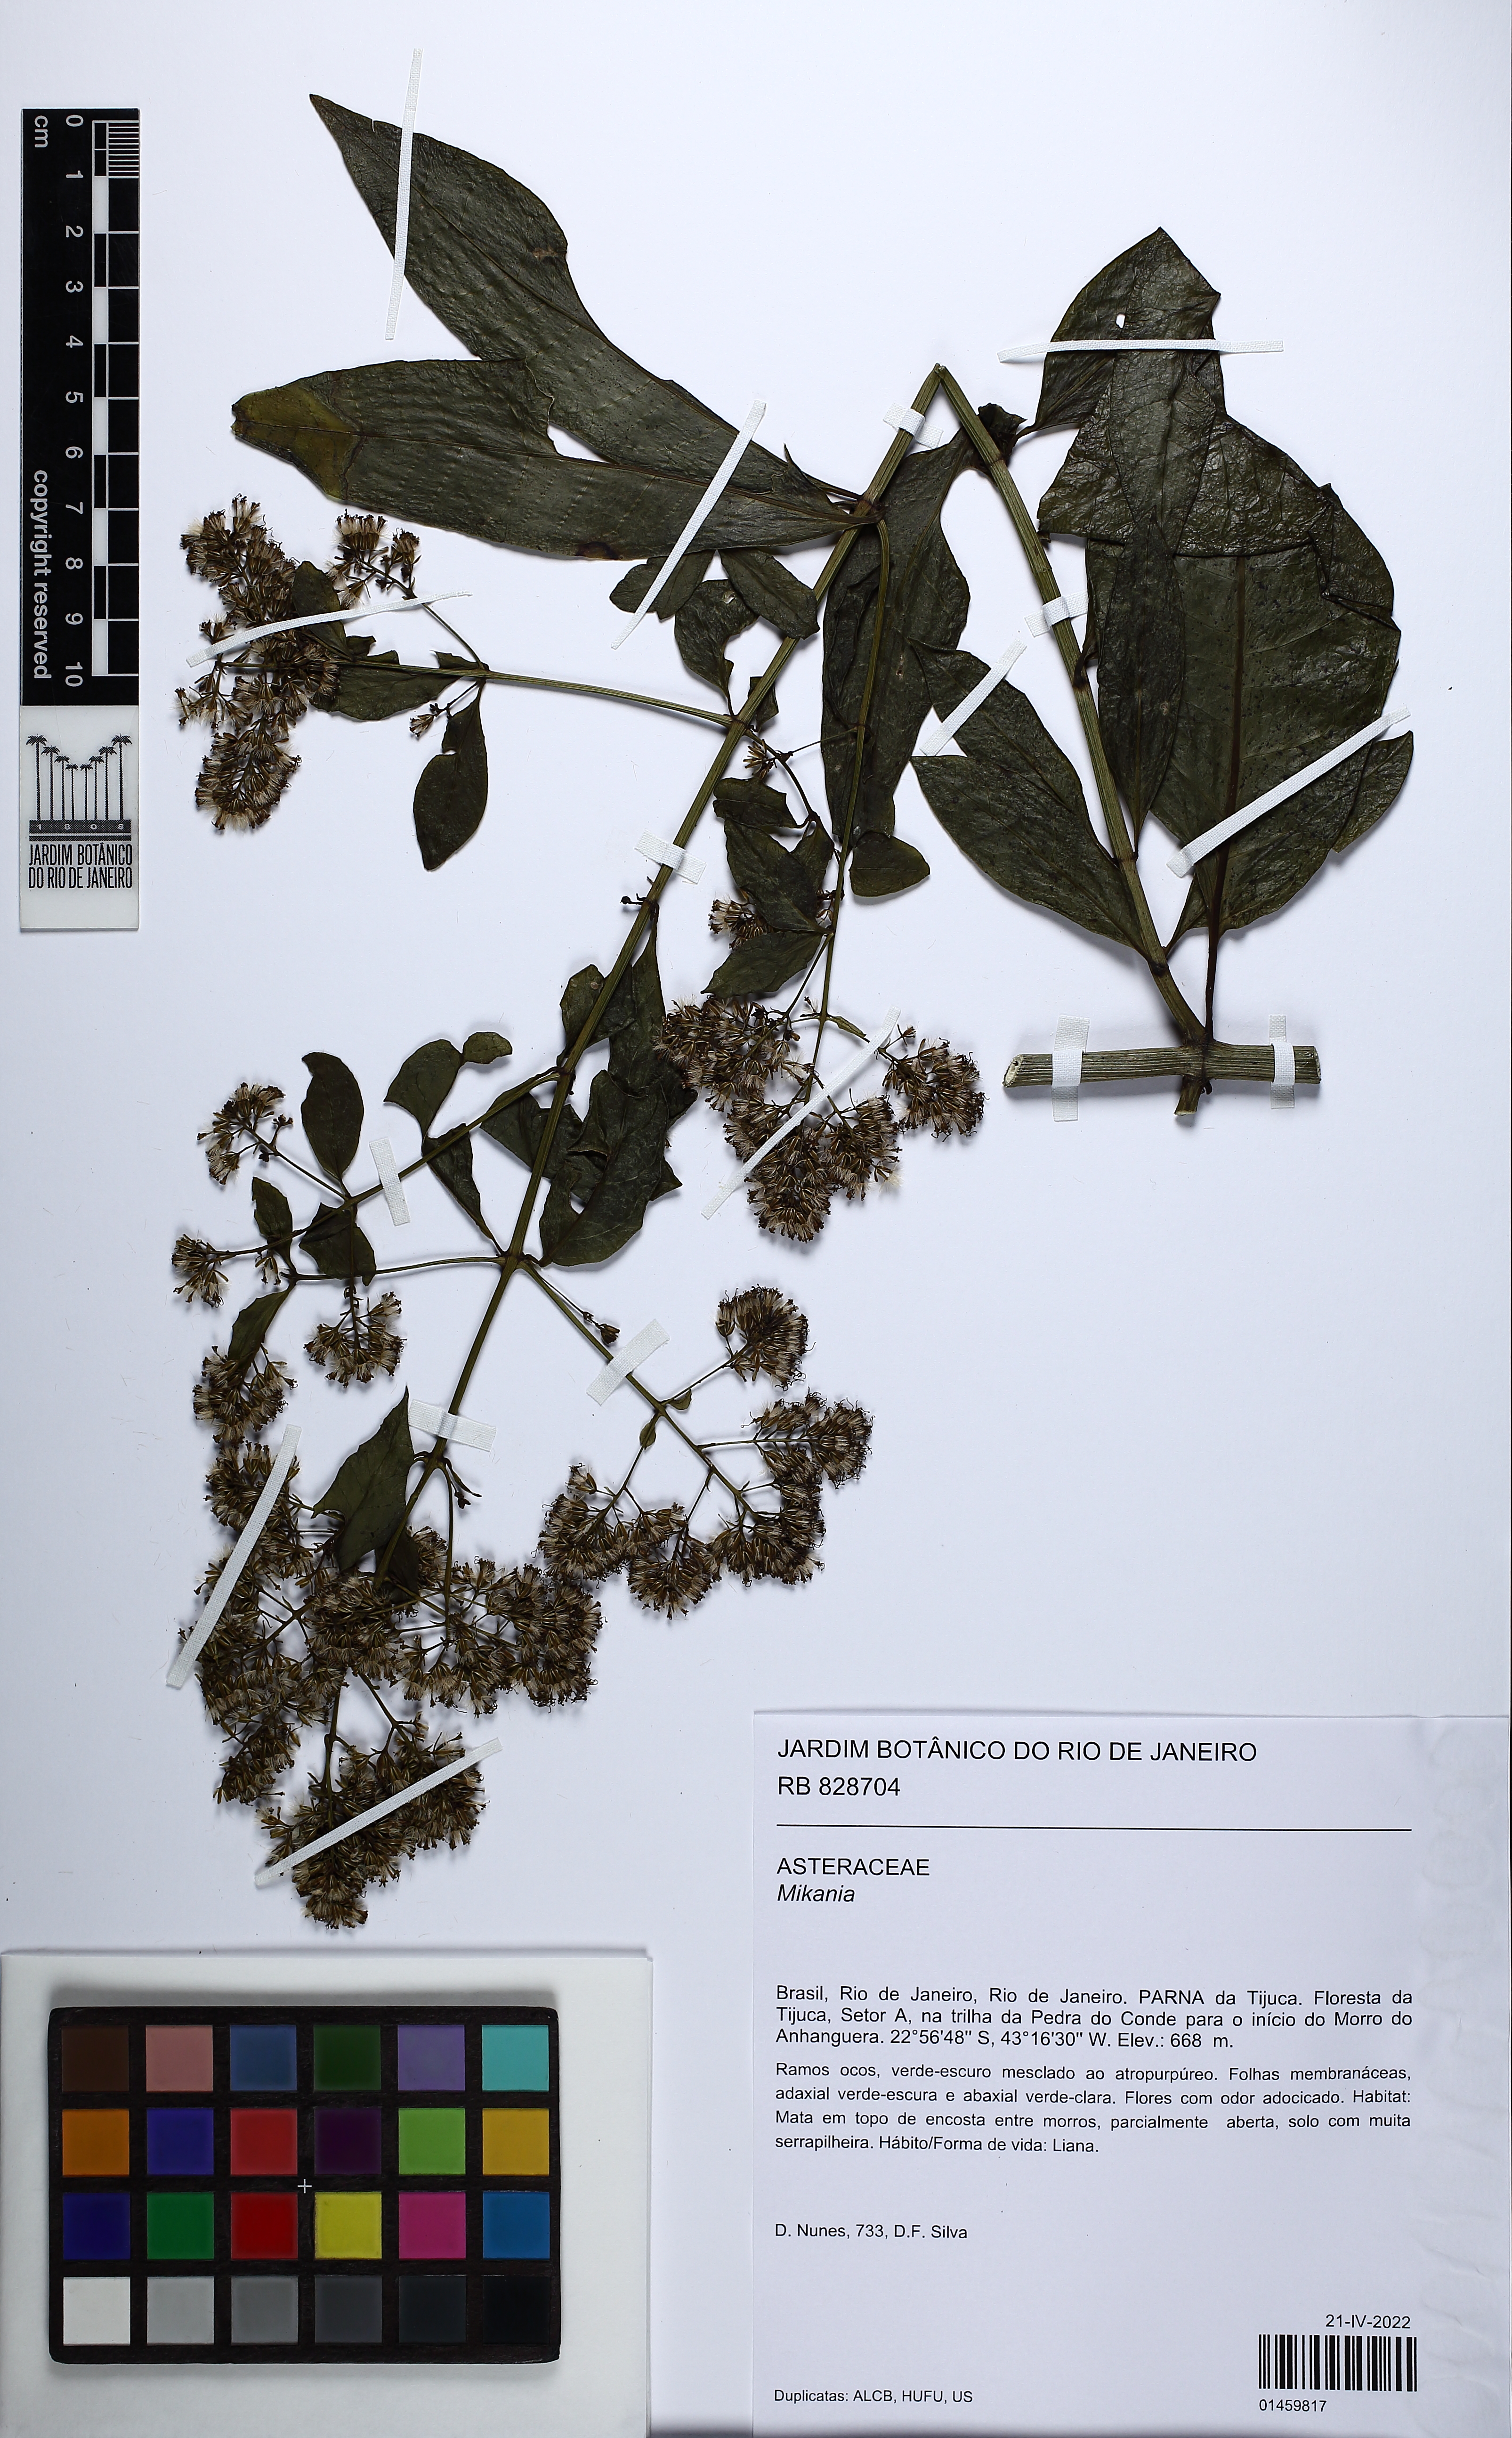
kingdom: Plantae
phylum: Tracheophyta
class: Magnoliopsida
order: Asterales
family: Asteraceae
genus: Mikania
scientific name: Mikania
